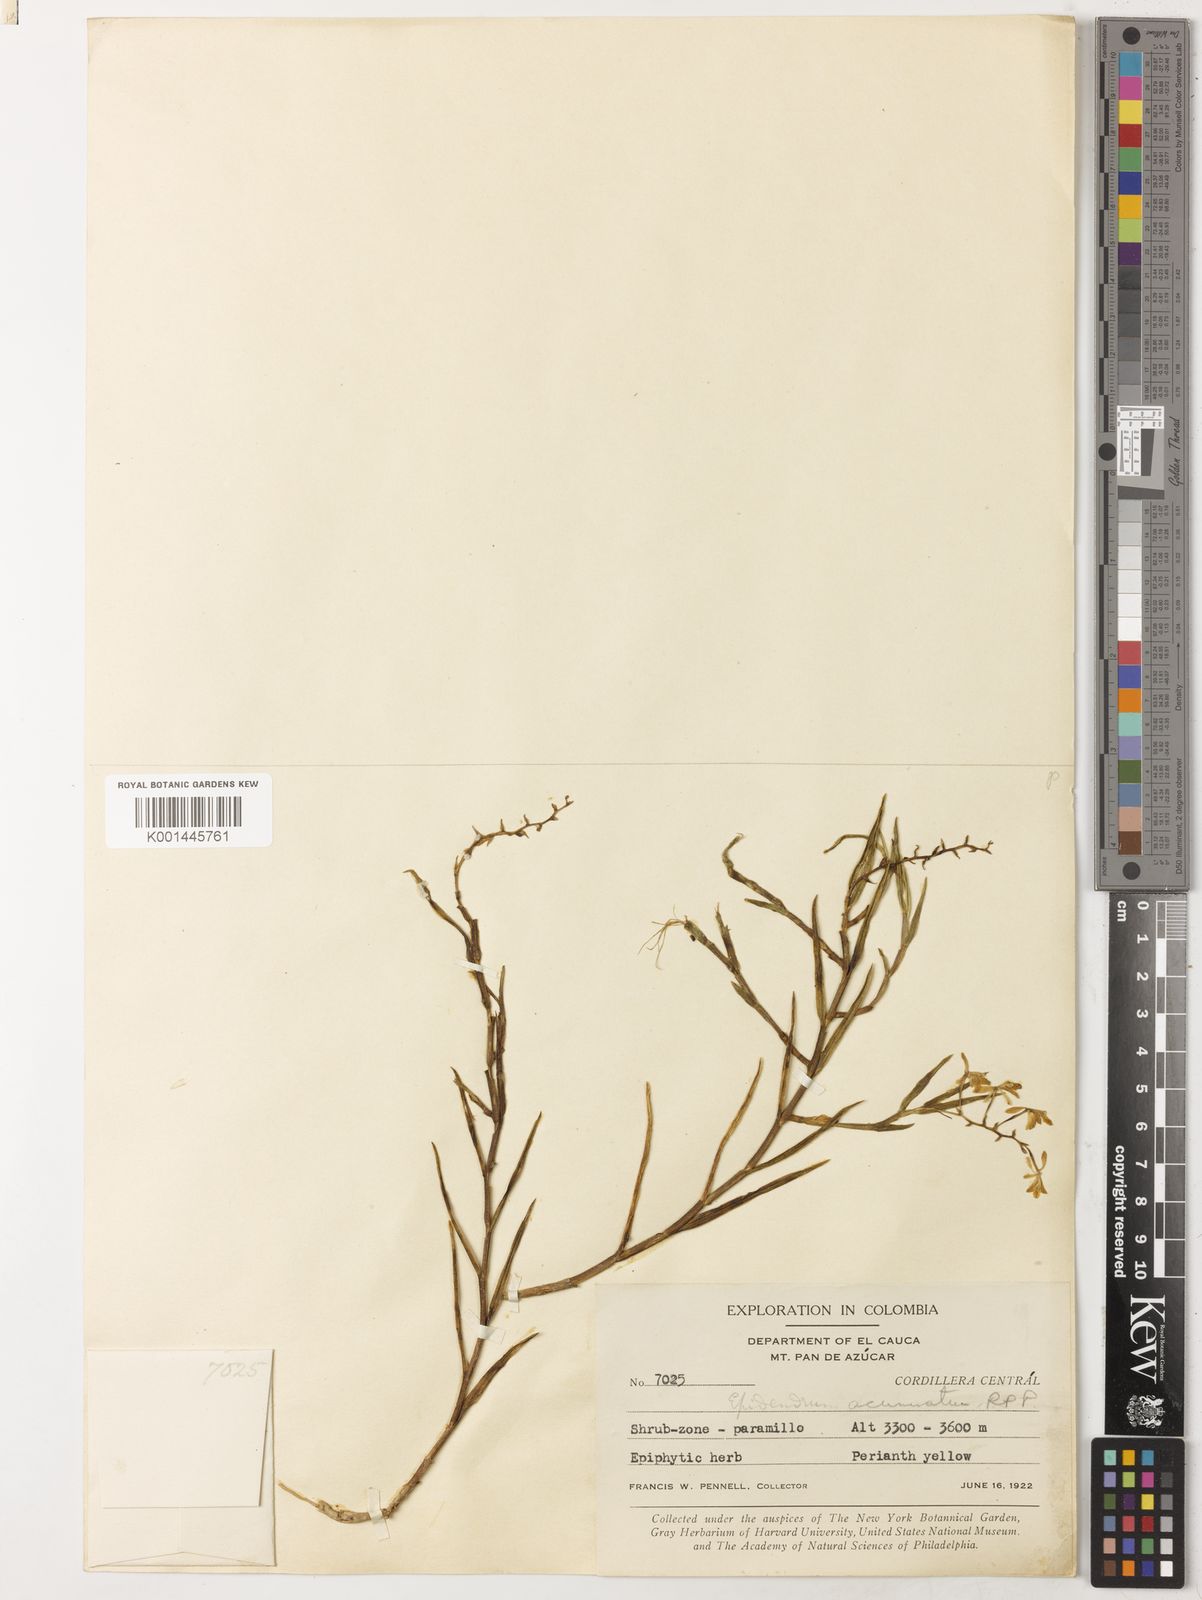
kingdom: Plantae
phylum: Tracheophyta
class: Liliopsida
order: Asparagales
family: Orchidaceae
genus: Epidendrum
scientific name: Epidendrum acuminatum
